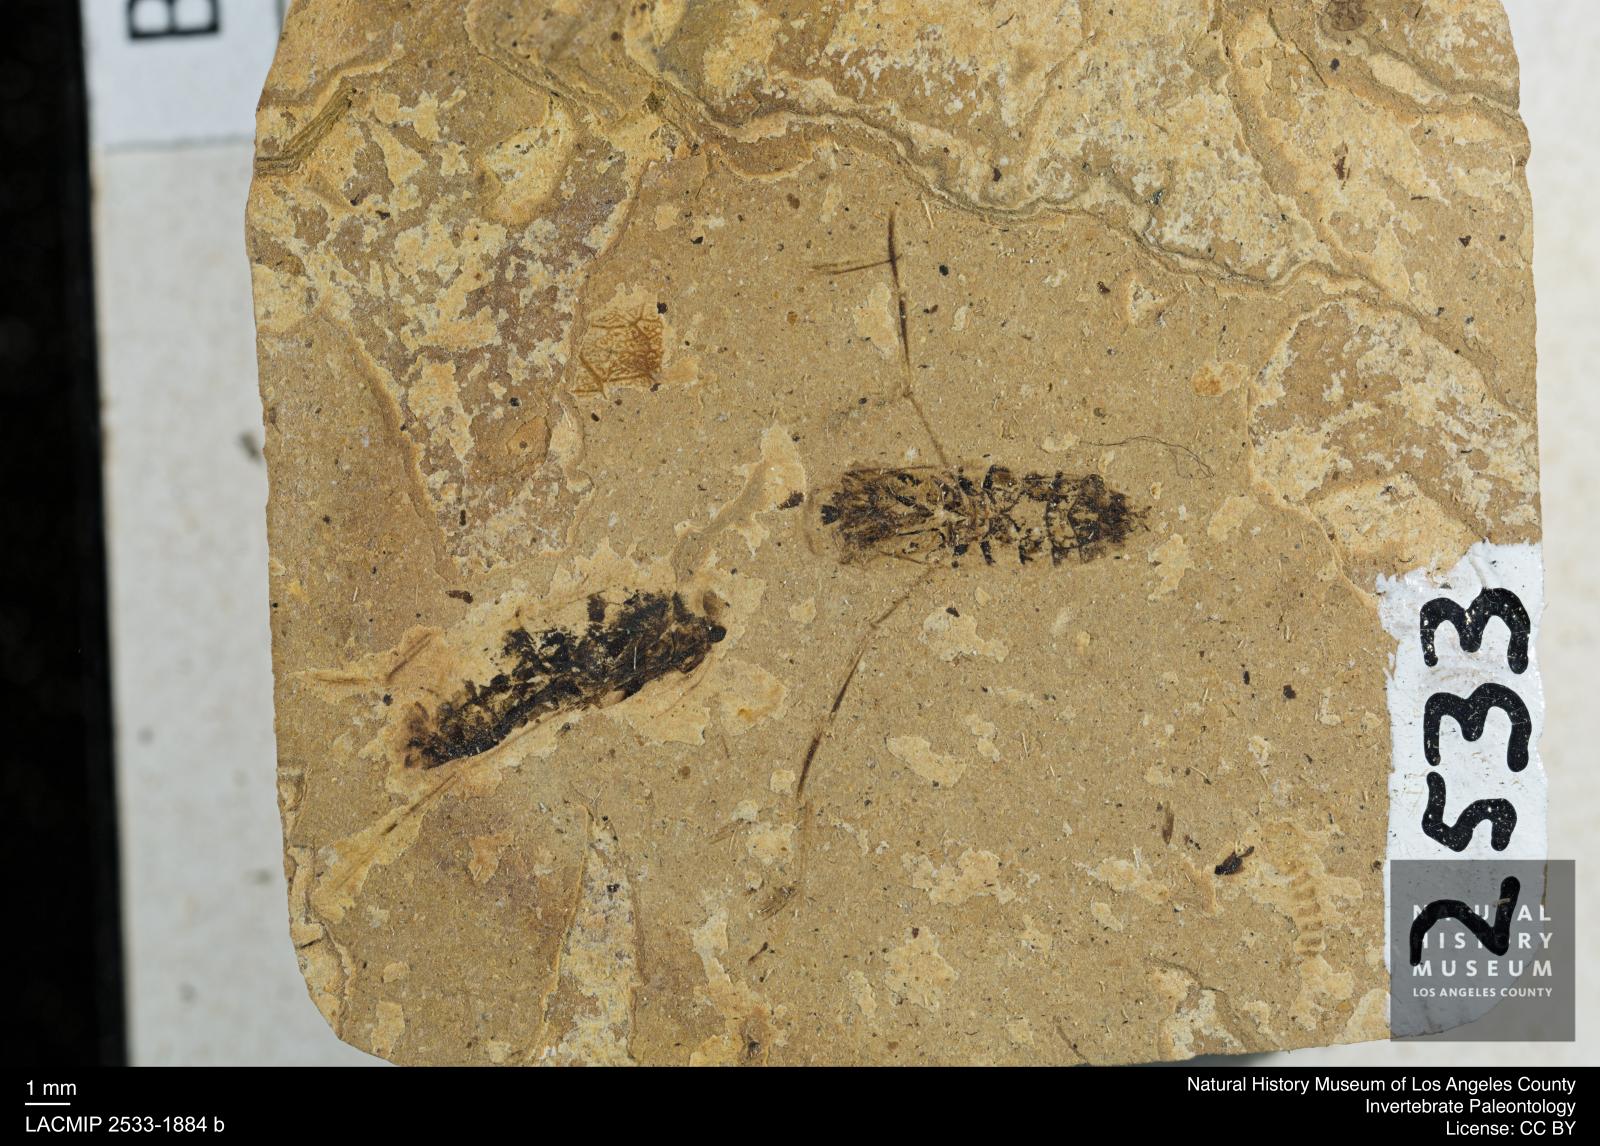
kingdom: Animalia
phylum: Arthropoda
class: Insecta
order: Hemiptera
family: Notonectidae
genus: Anisops
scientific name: Anisops Notonecta deichmuelleri
